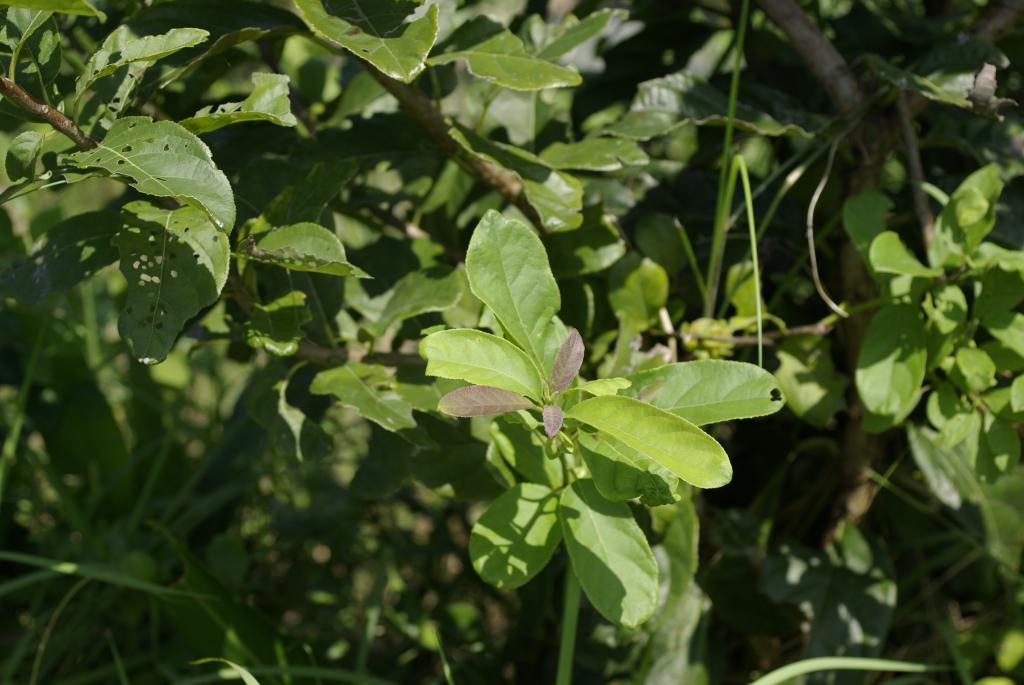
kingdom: Plantae
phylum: Tracheophyta
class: Magnoliopsida
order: Boraginales
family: Ehretiaceae
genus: Ehretia
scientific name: Ehretia acuminata
